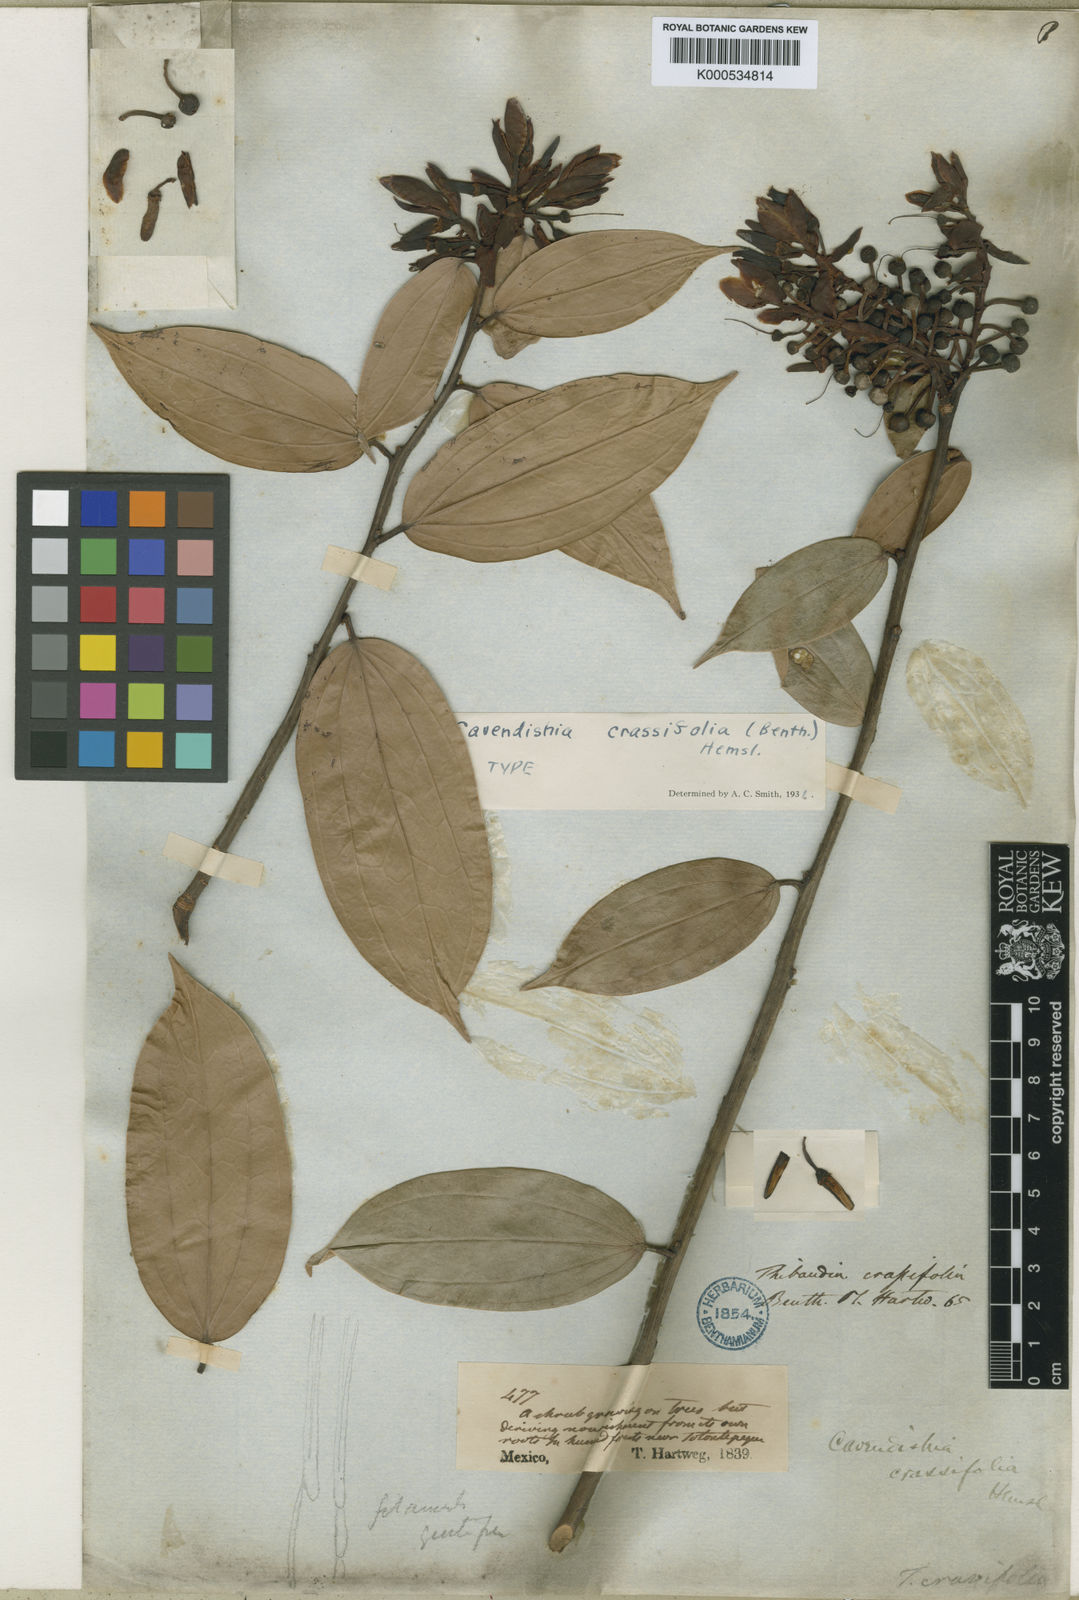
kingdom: Plantae
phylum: Tracheophyta
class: Magnoliopsida
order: Ericales
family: Ericaceae
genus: Cavendishia
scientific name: Cavendishia
